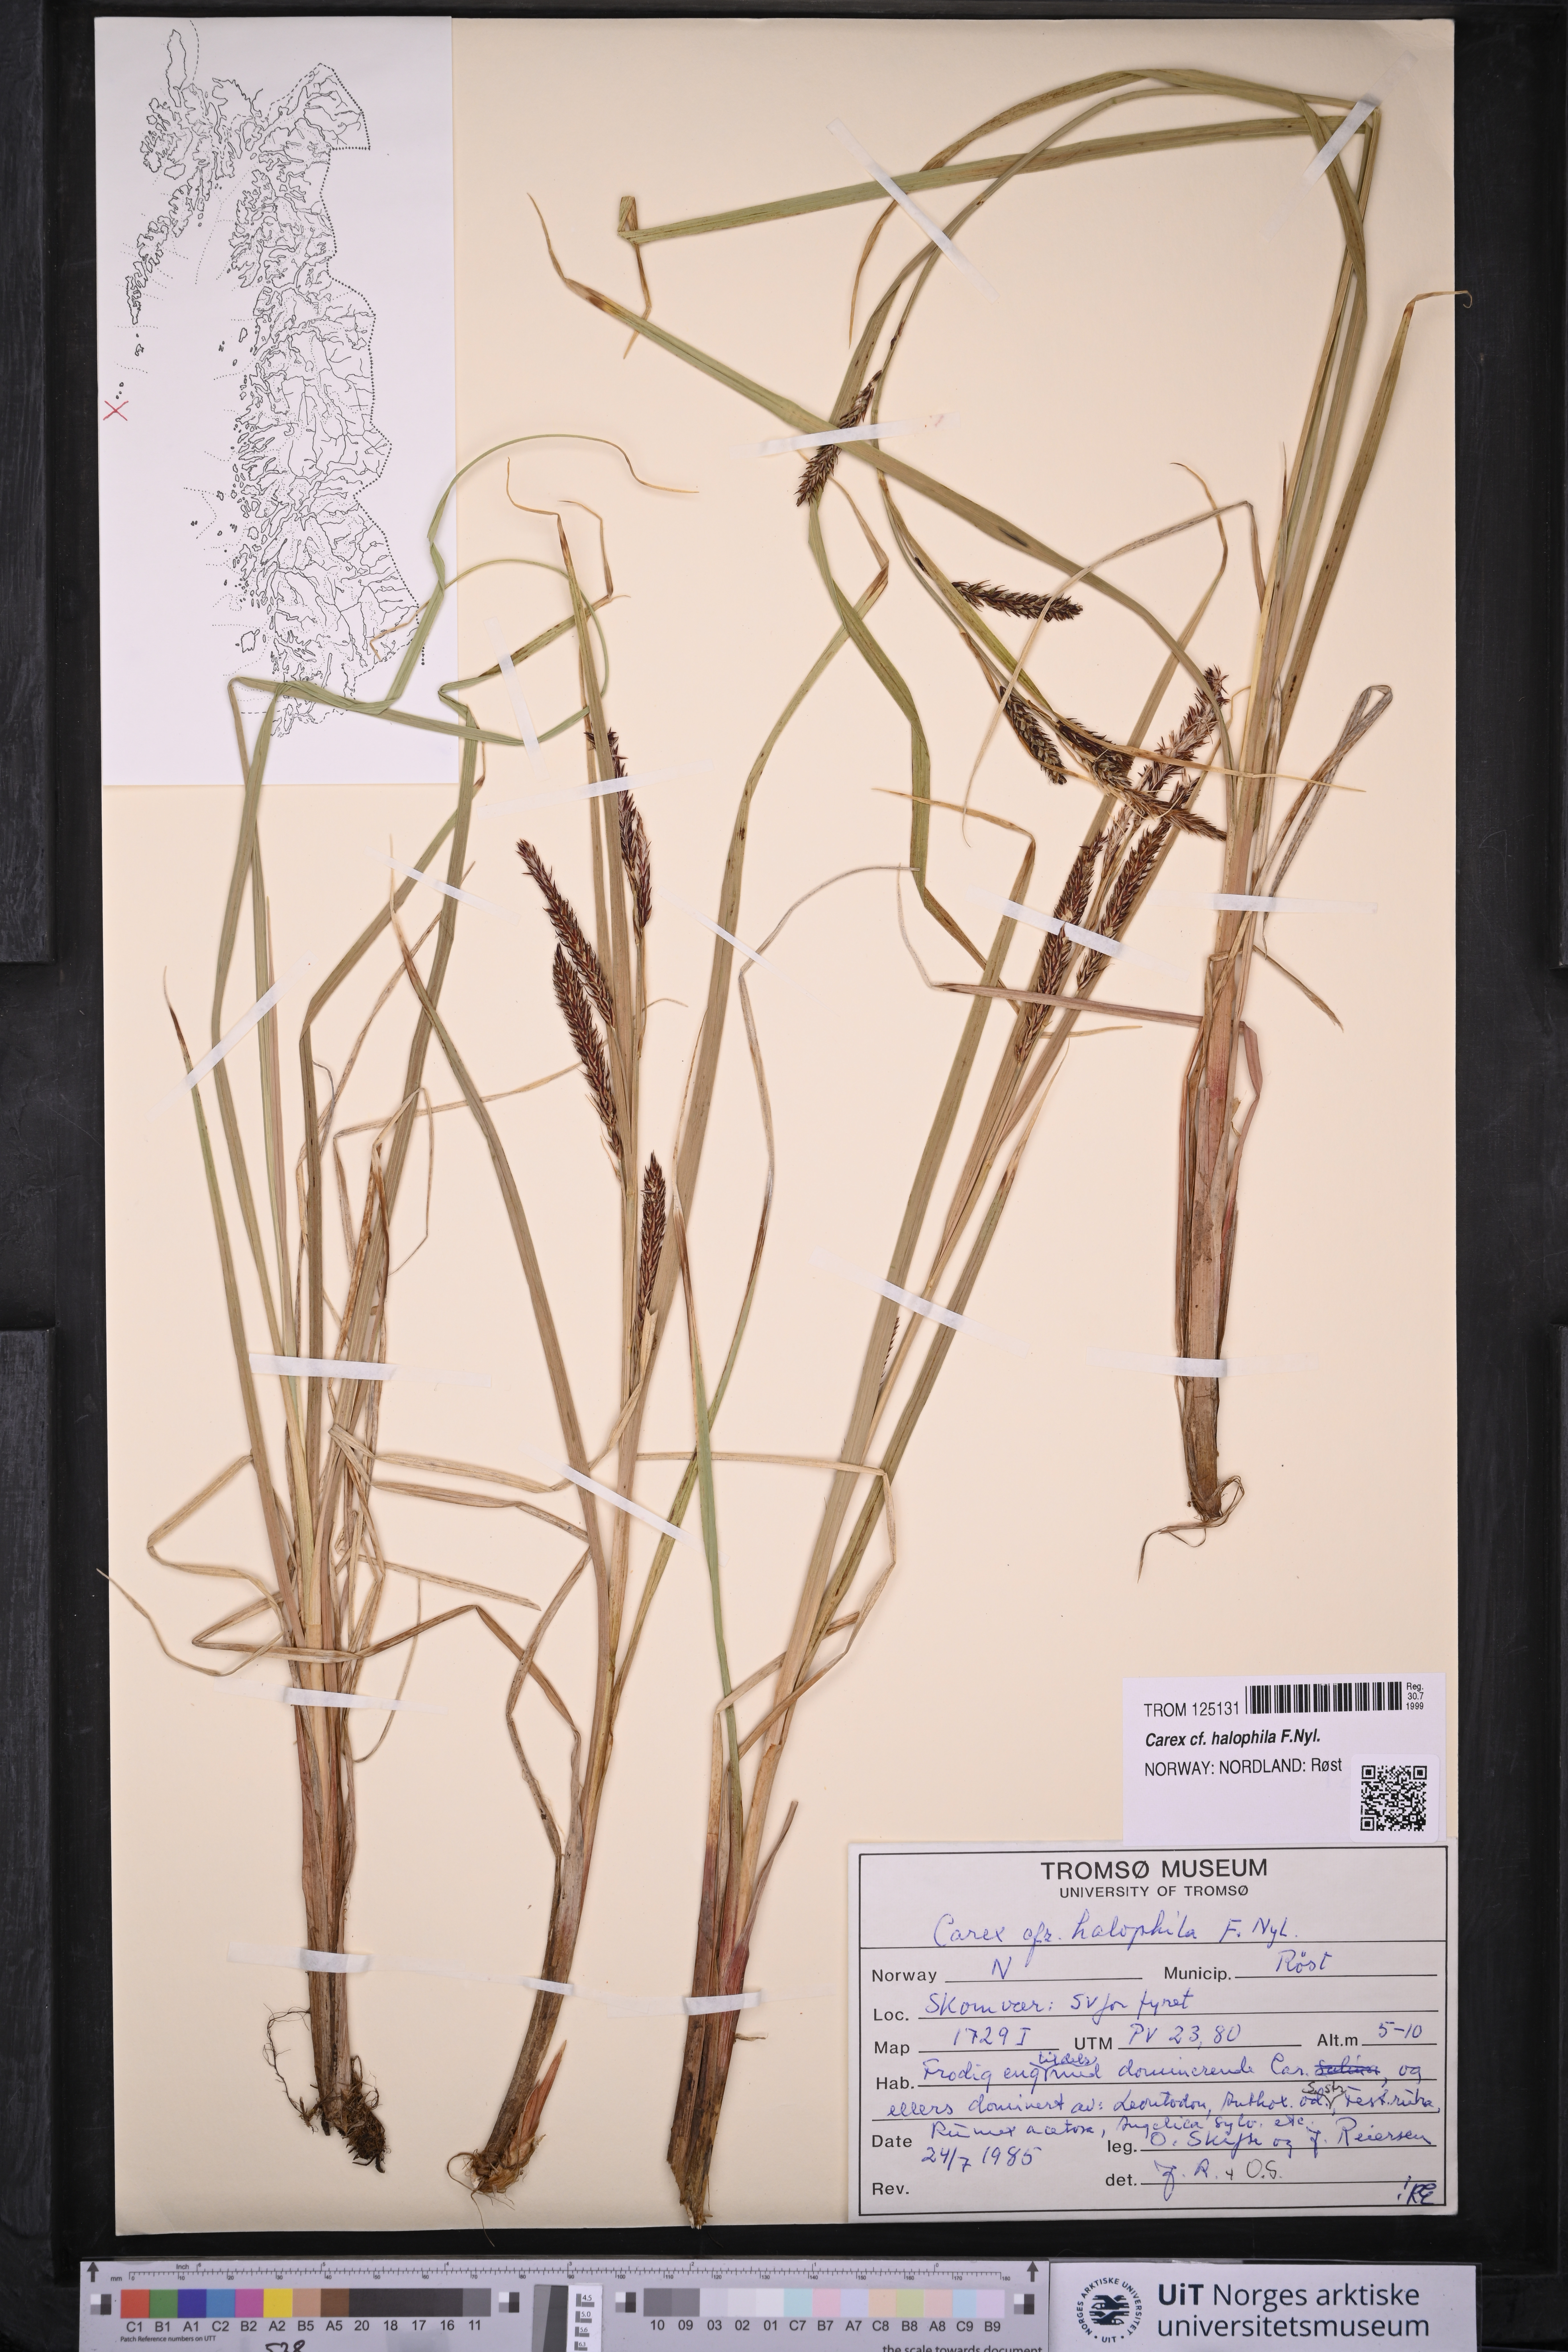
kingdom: Plantae
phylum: Tracheophyta
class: Liliopsida
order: Poales
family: Cyperaceae
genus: Carex
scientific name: Carex halophila
